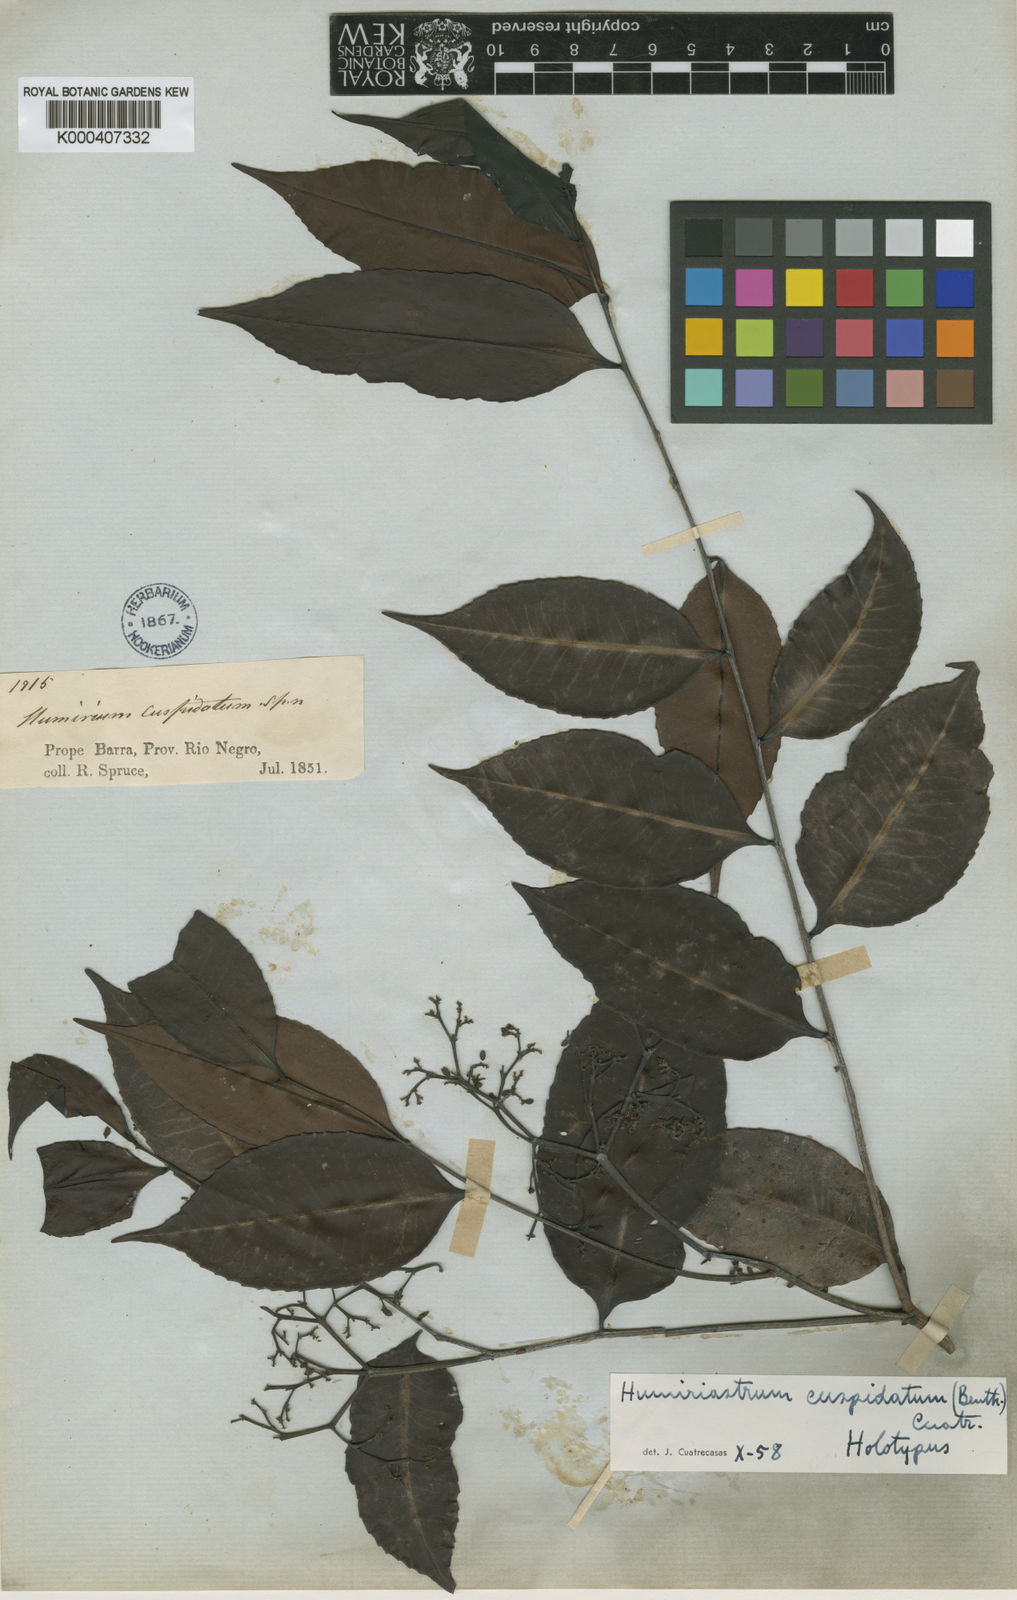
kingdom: Plantae
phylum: Tracheophyta
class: Magnoliopsida
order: Malpighiales
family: Humiriaceae
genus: Humiriastrum
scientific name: Humiriastrum cuspidatum
